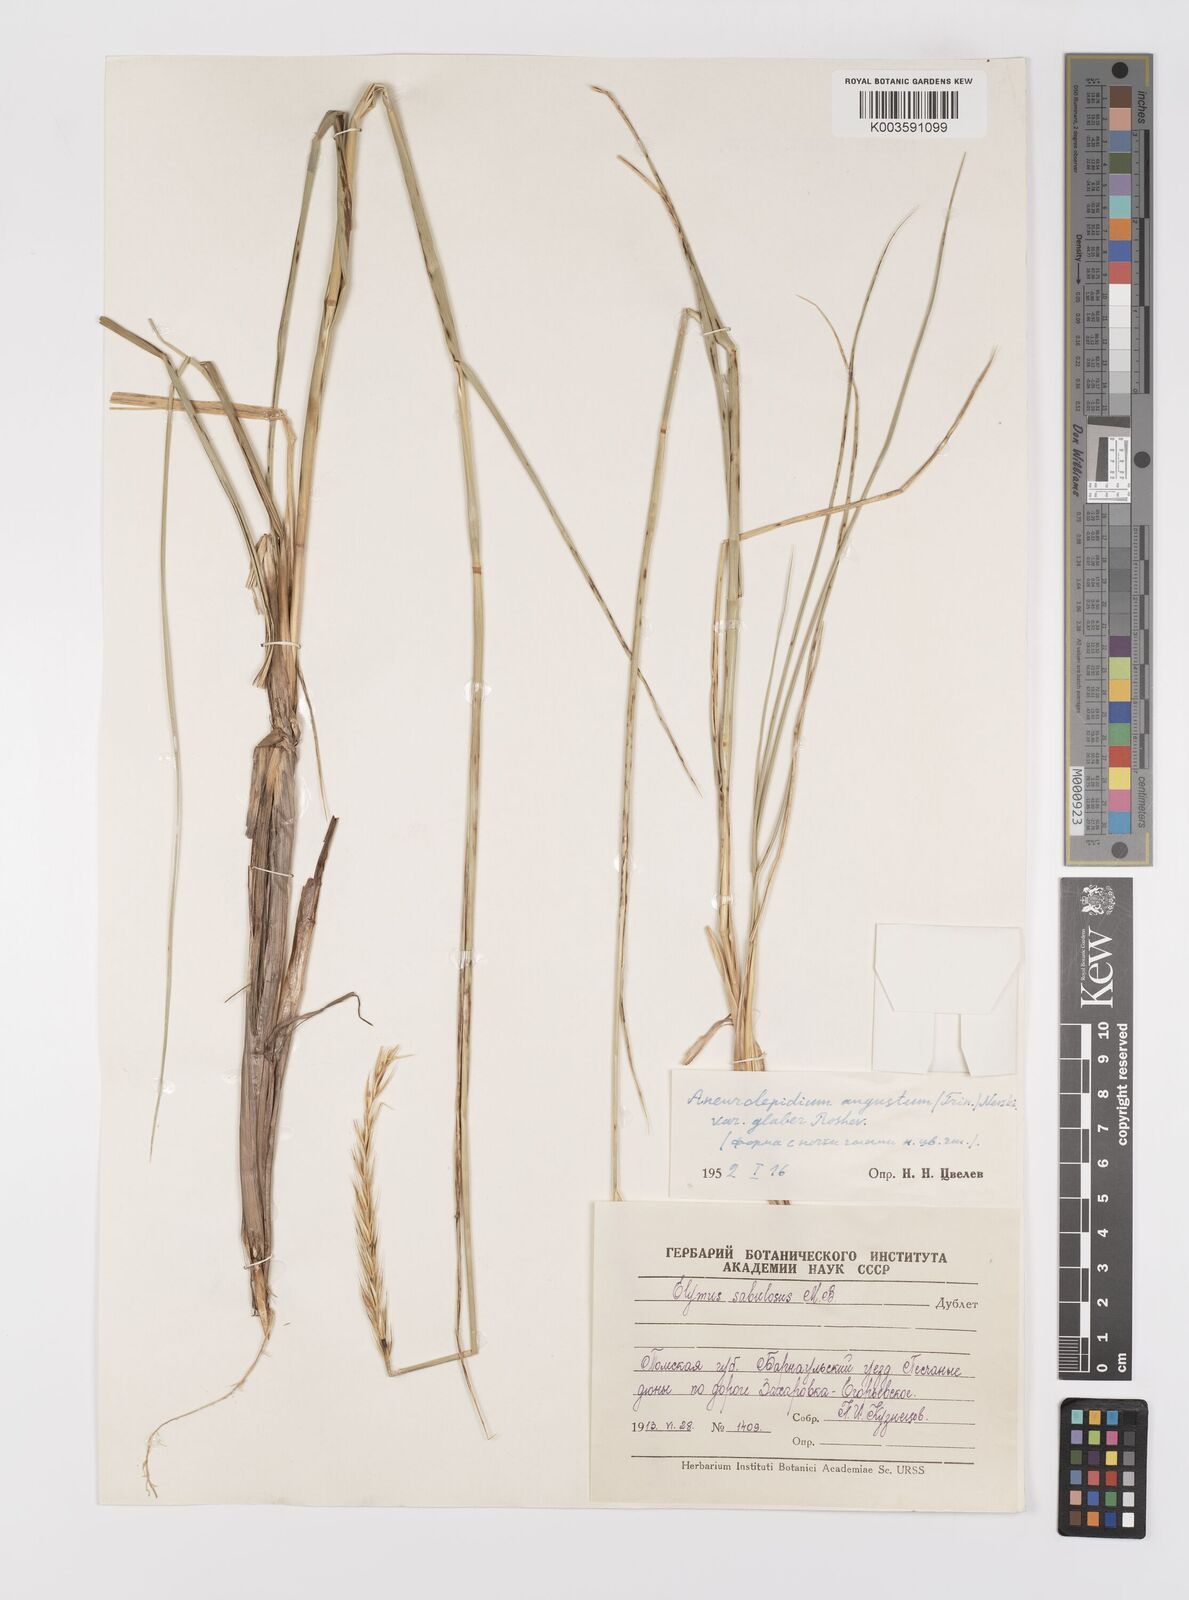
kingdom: Plantae
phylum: Tracheophyta
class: Liliopsida
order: Poales
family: Poaceae
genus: Leymus
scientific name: Leymus racemosus
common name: Mammoth wildrye
